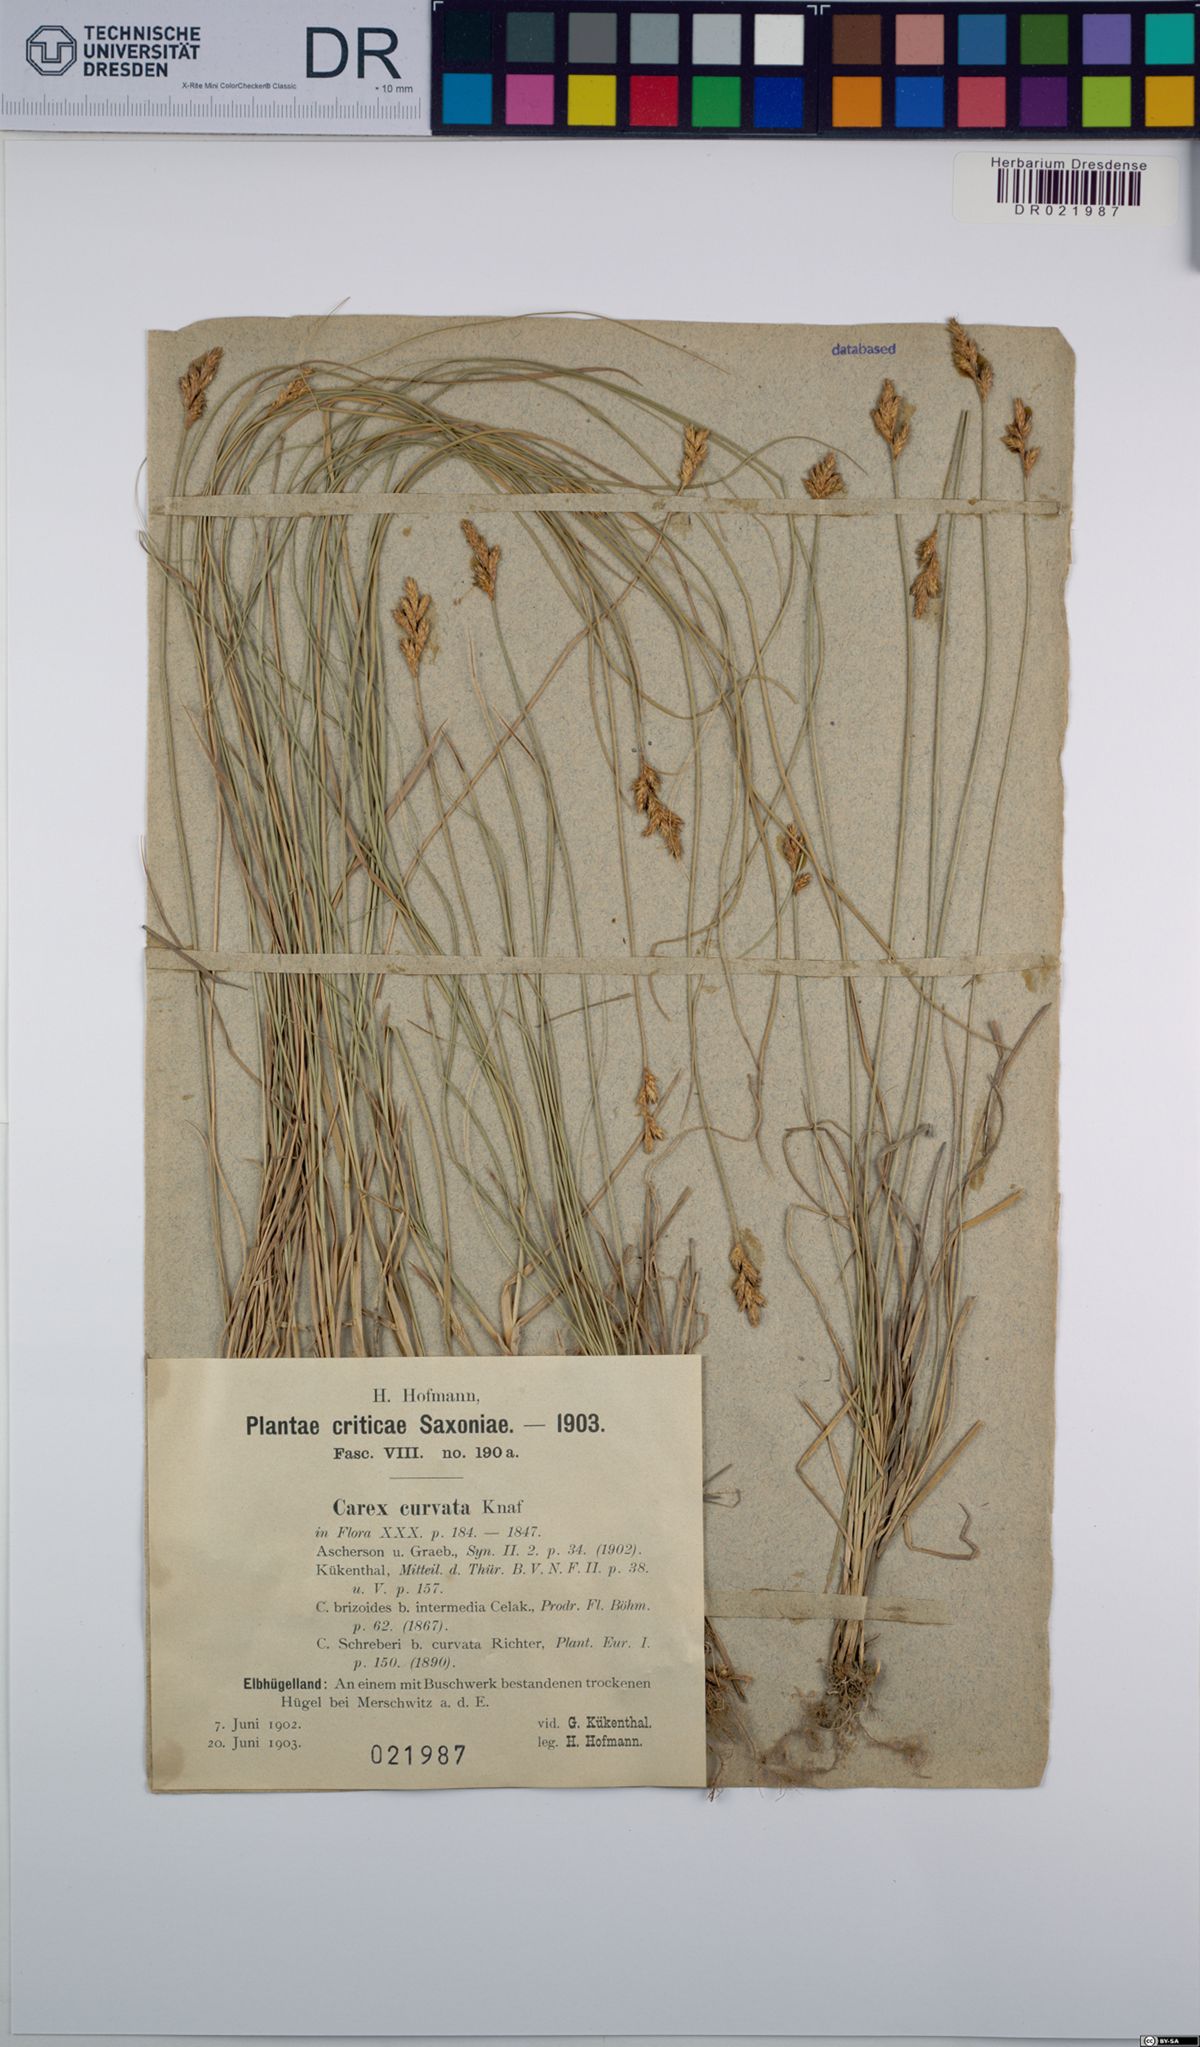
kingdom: Plantae
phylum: Tracheophyta
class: Liliopsida
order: Poales
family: Cyperaceae
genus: Carex
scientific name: Carex curvata
